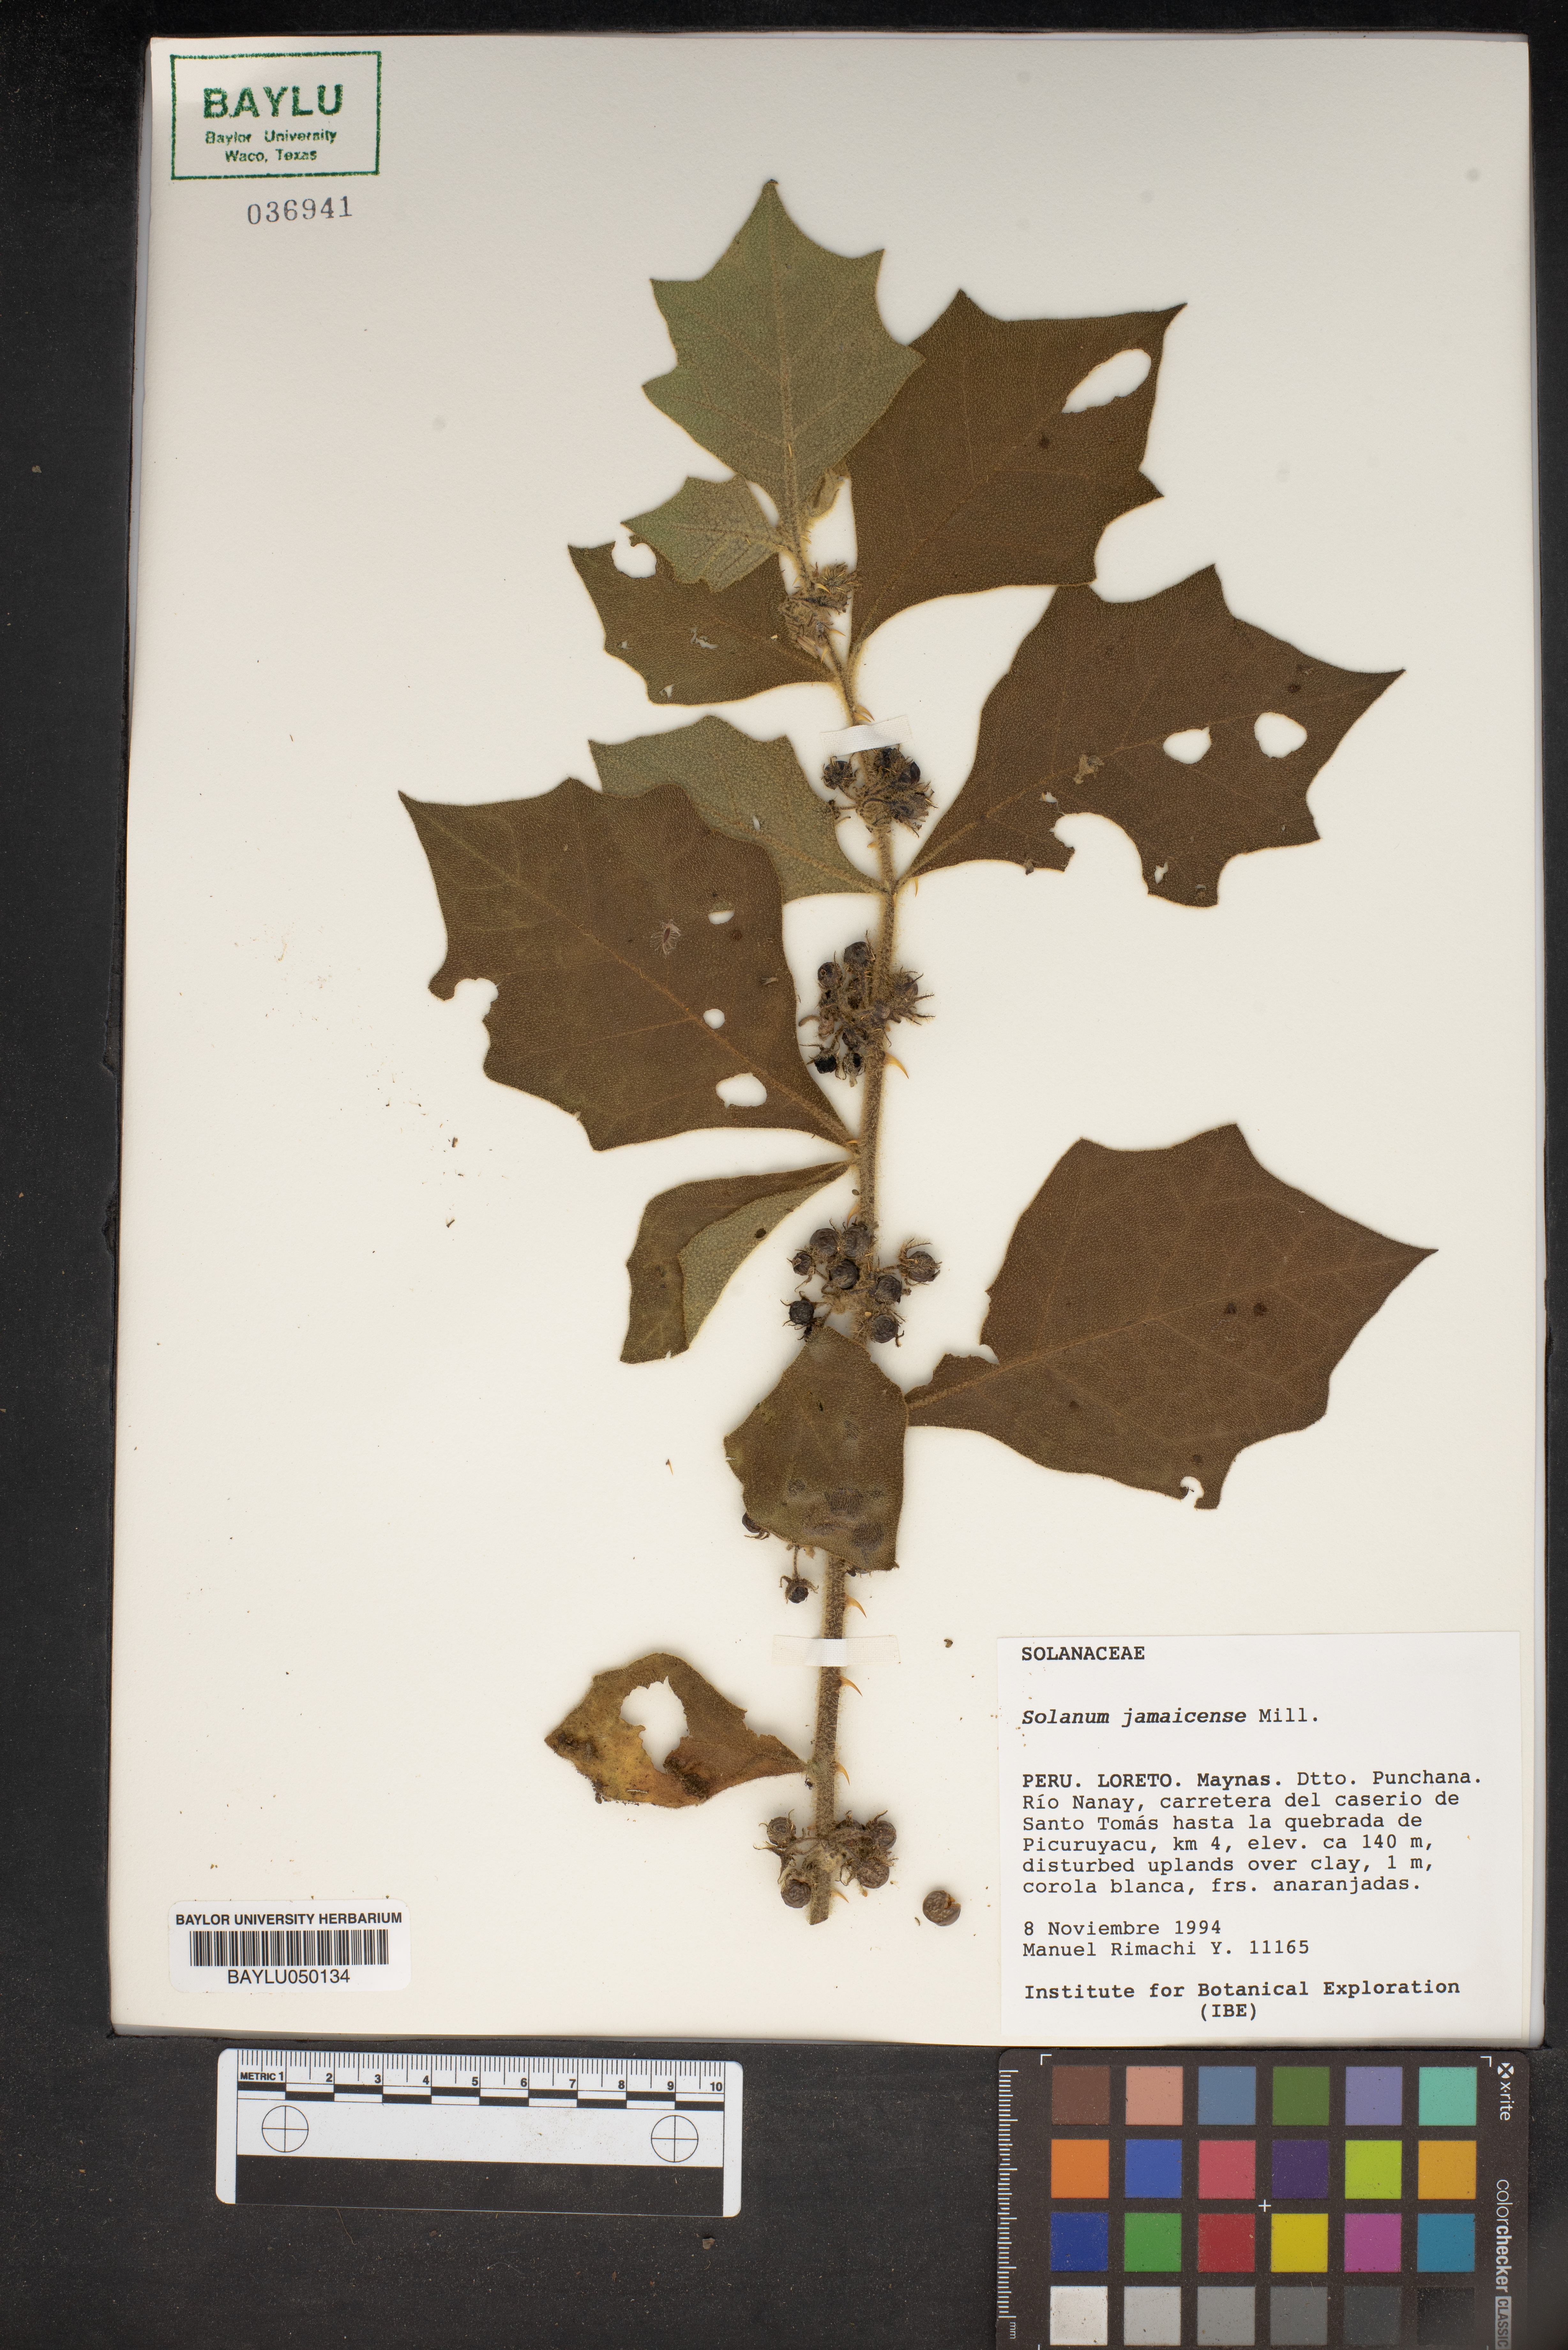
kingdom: Plantae
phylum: Tracheophyta
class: Magnoliopsida
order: Solanales
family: Solanaceae
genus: Solanum
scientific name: Solanum jamaicense
